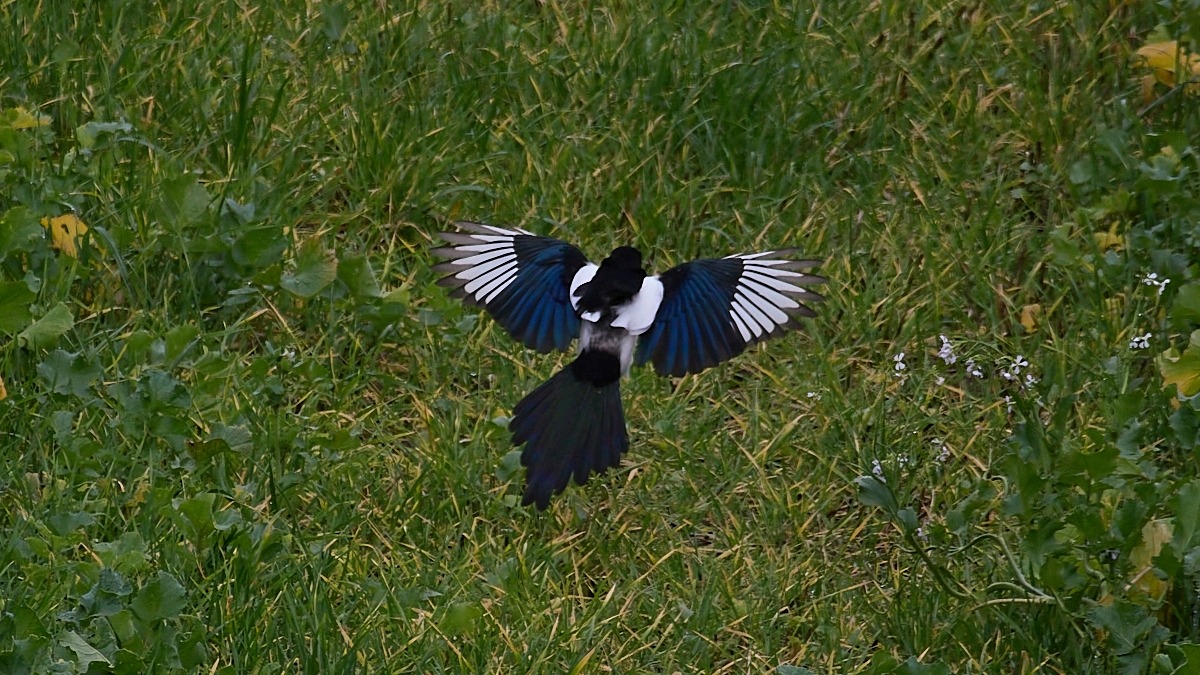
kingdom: Animalia
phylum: Chordata
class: Aves
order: Passeriformes
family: Corvidae
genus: Pica
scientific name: Pica pica
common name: Husskade
